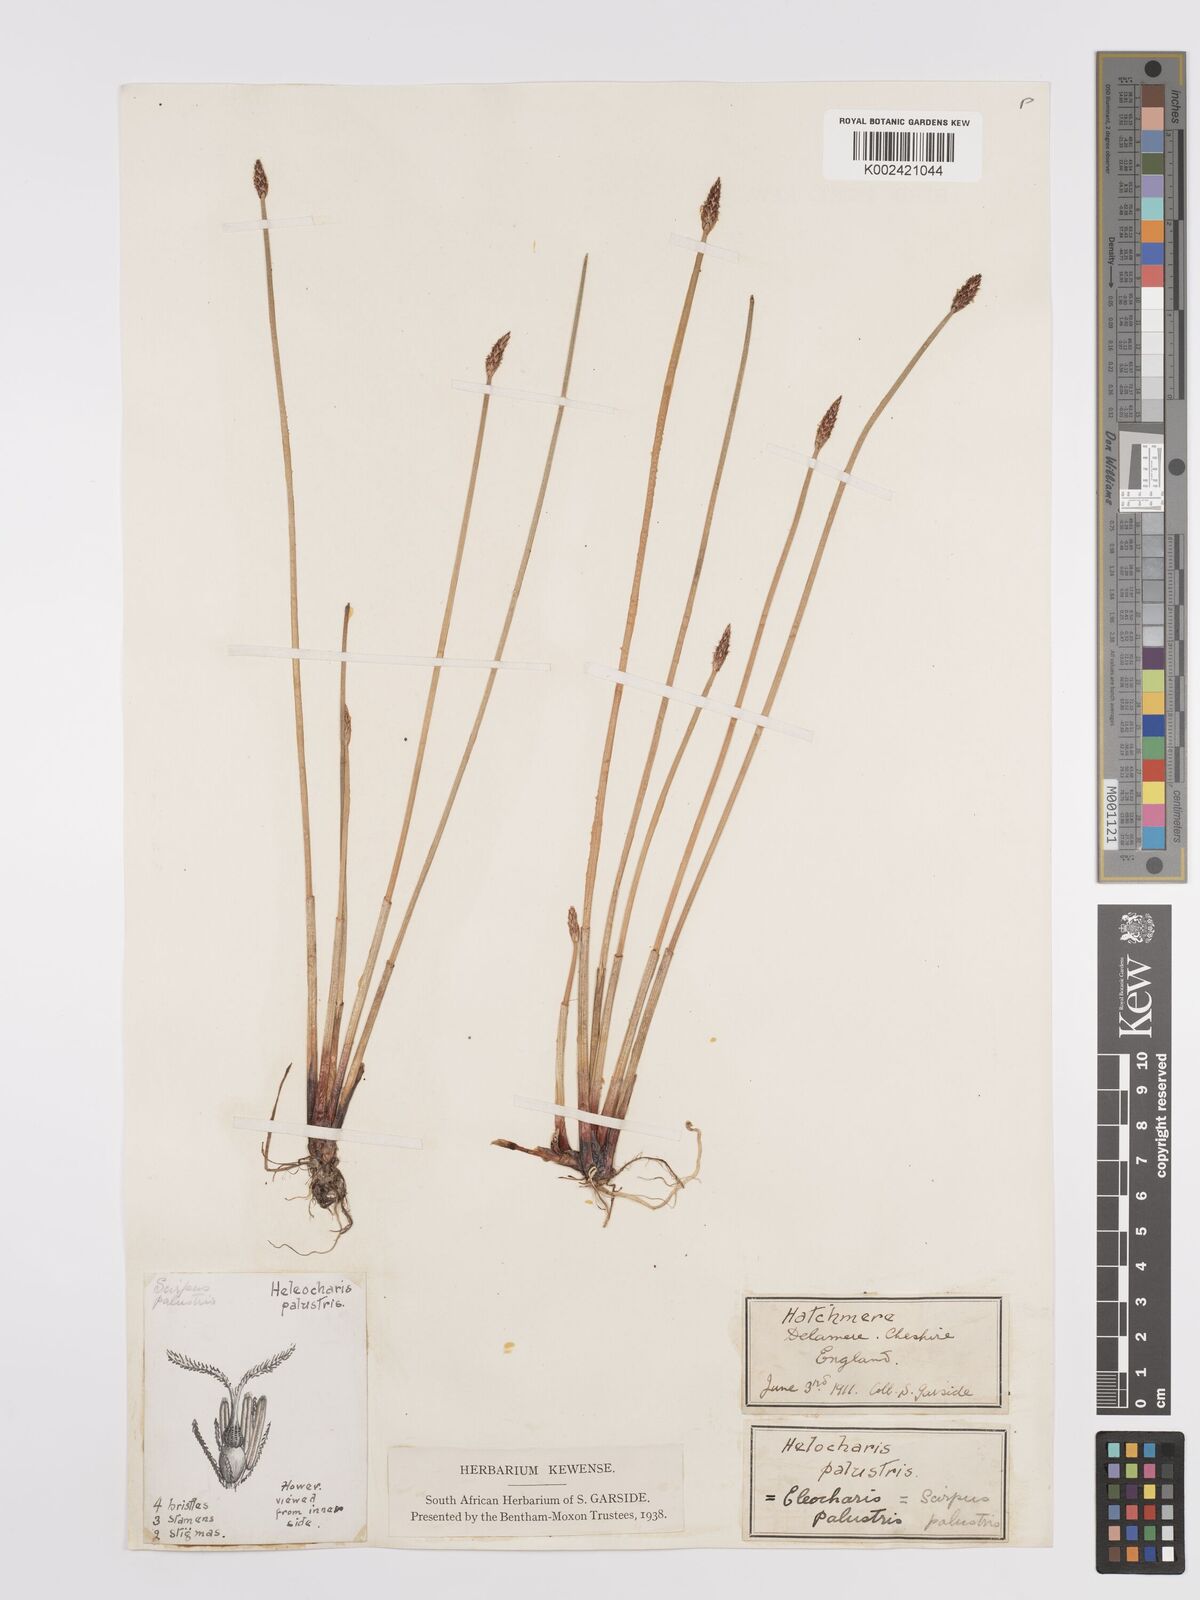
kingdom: Plantae
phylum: Tracheophyta
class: Liliopsida
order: Poales
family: Cyperaceae
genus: Eleocharis
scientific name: Eleocharis palustris
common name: Common spike-rush
